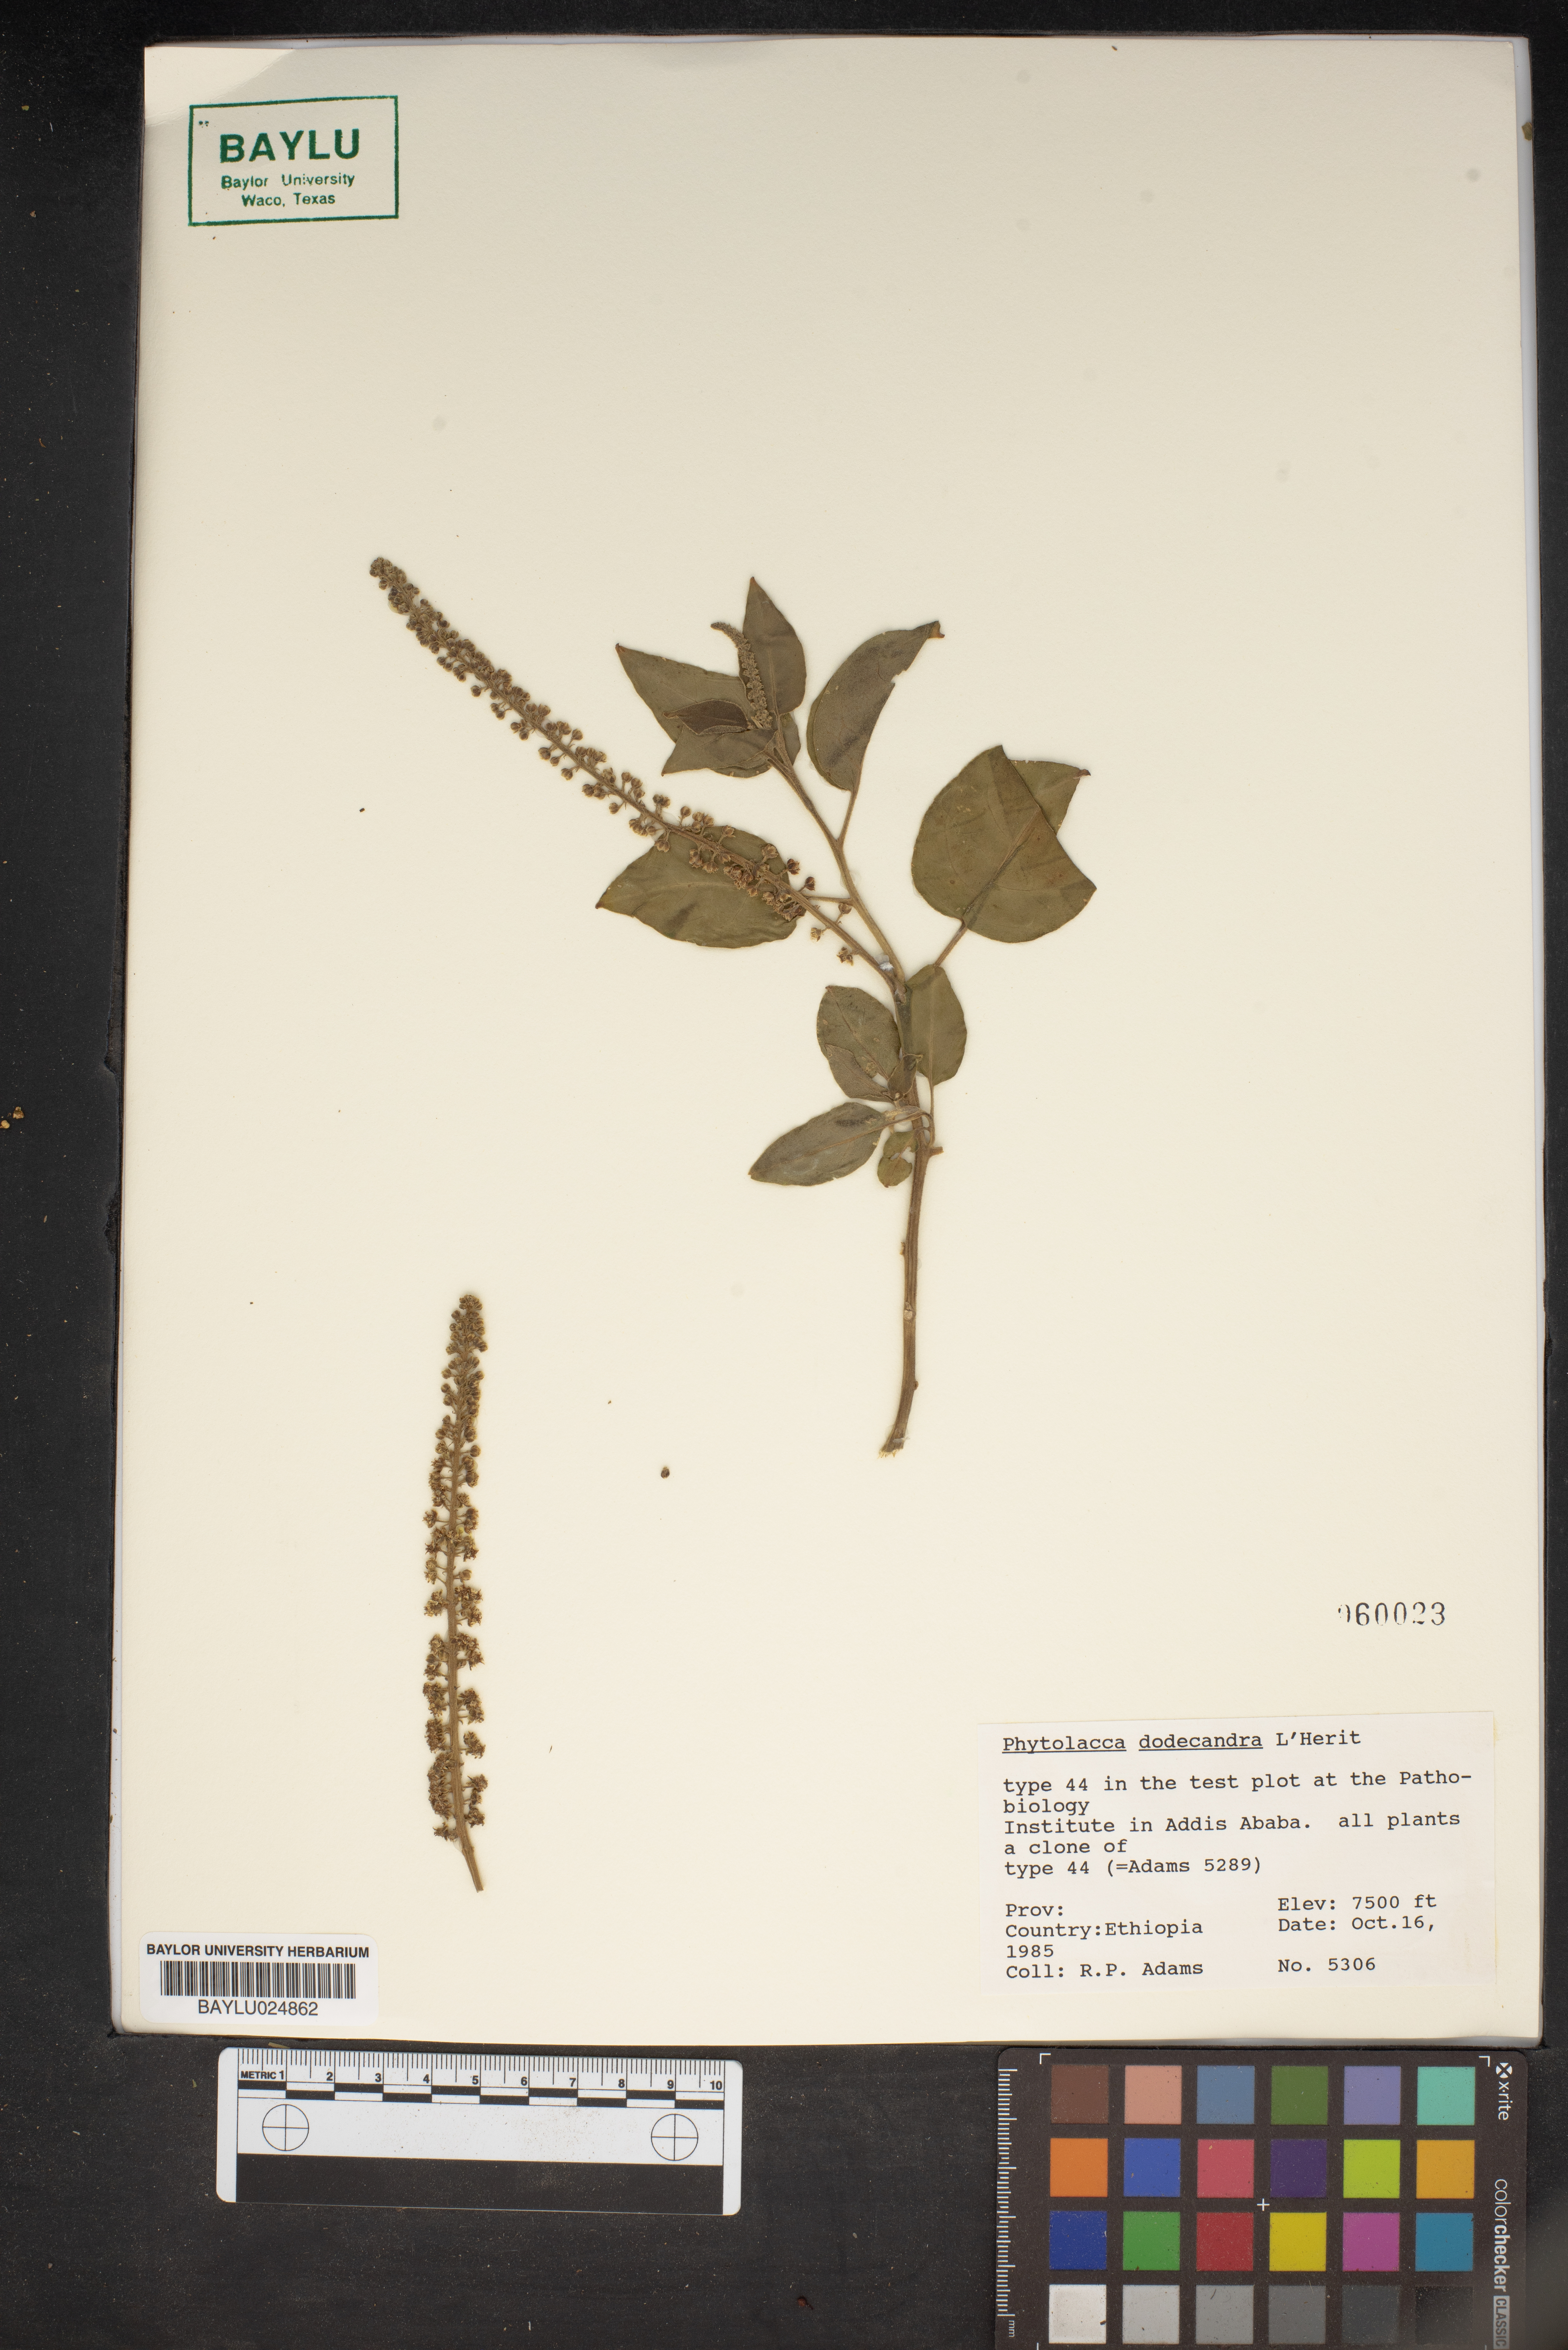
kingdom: Plantae
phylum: Tracheophyta
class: Magnoliopsida
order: Caryophyllales
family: Phytolaccaceae
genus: Phytolacca
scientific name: Phytolacca dodecandra
